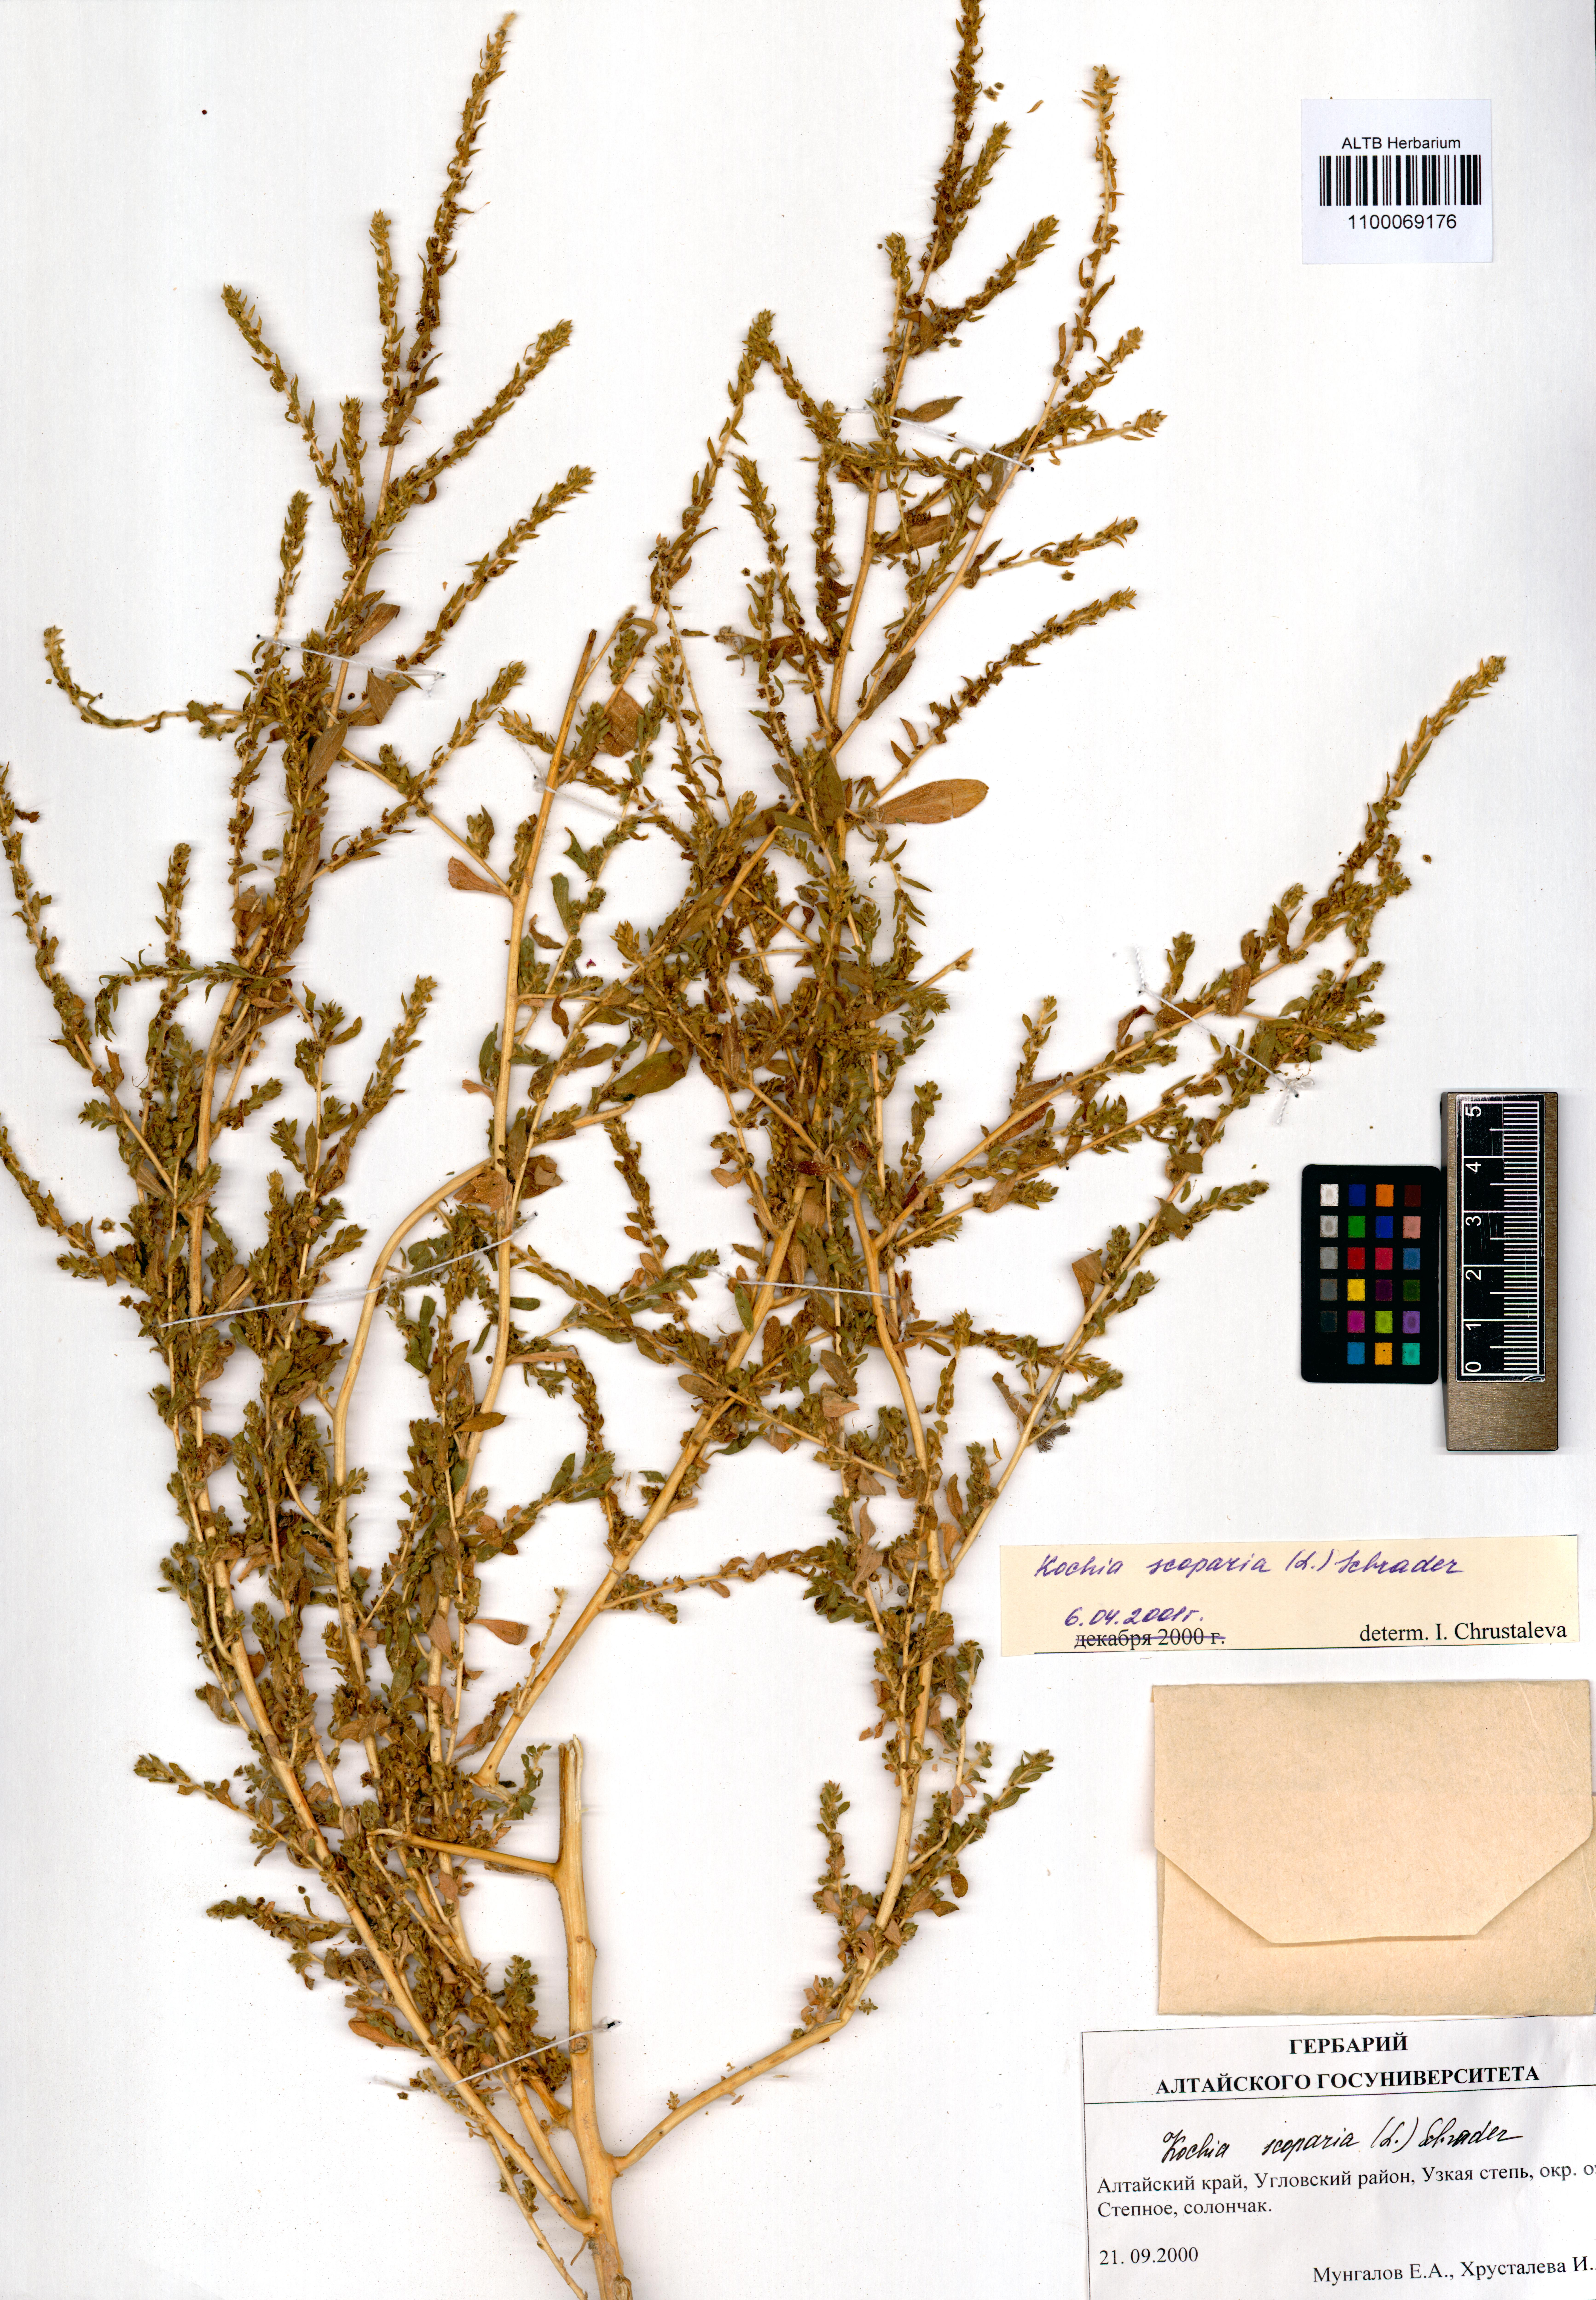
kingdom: Plantae
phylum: Tracheophyta
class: Magnoliopsida
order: Caryophyllales
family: Amaranthaceae
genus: Bassia
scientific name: Bassia scoparia
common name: Belvedere
